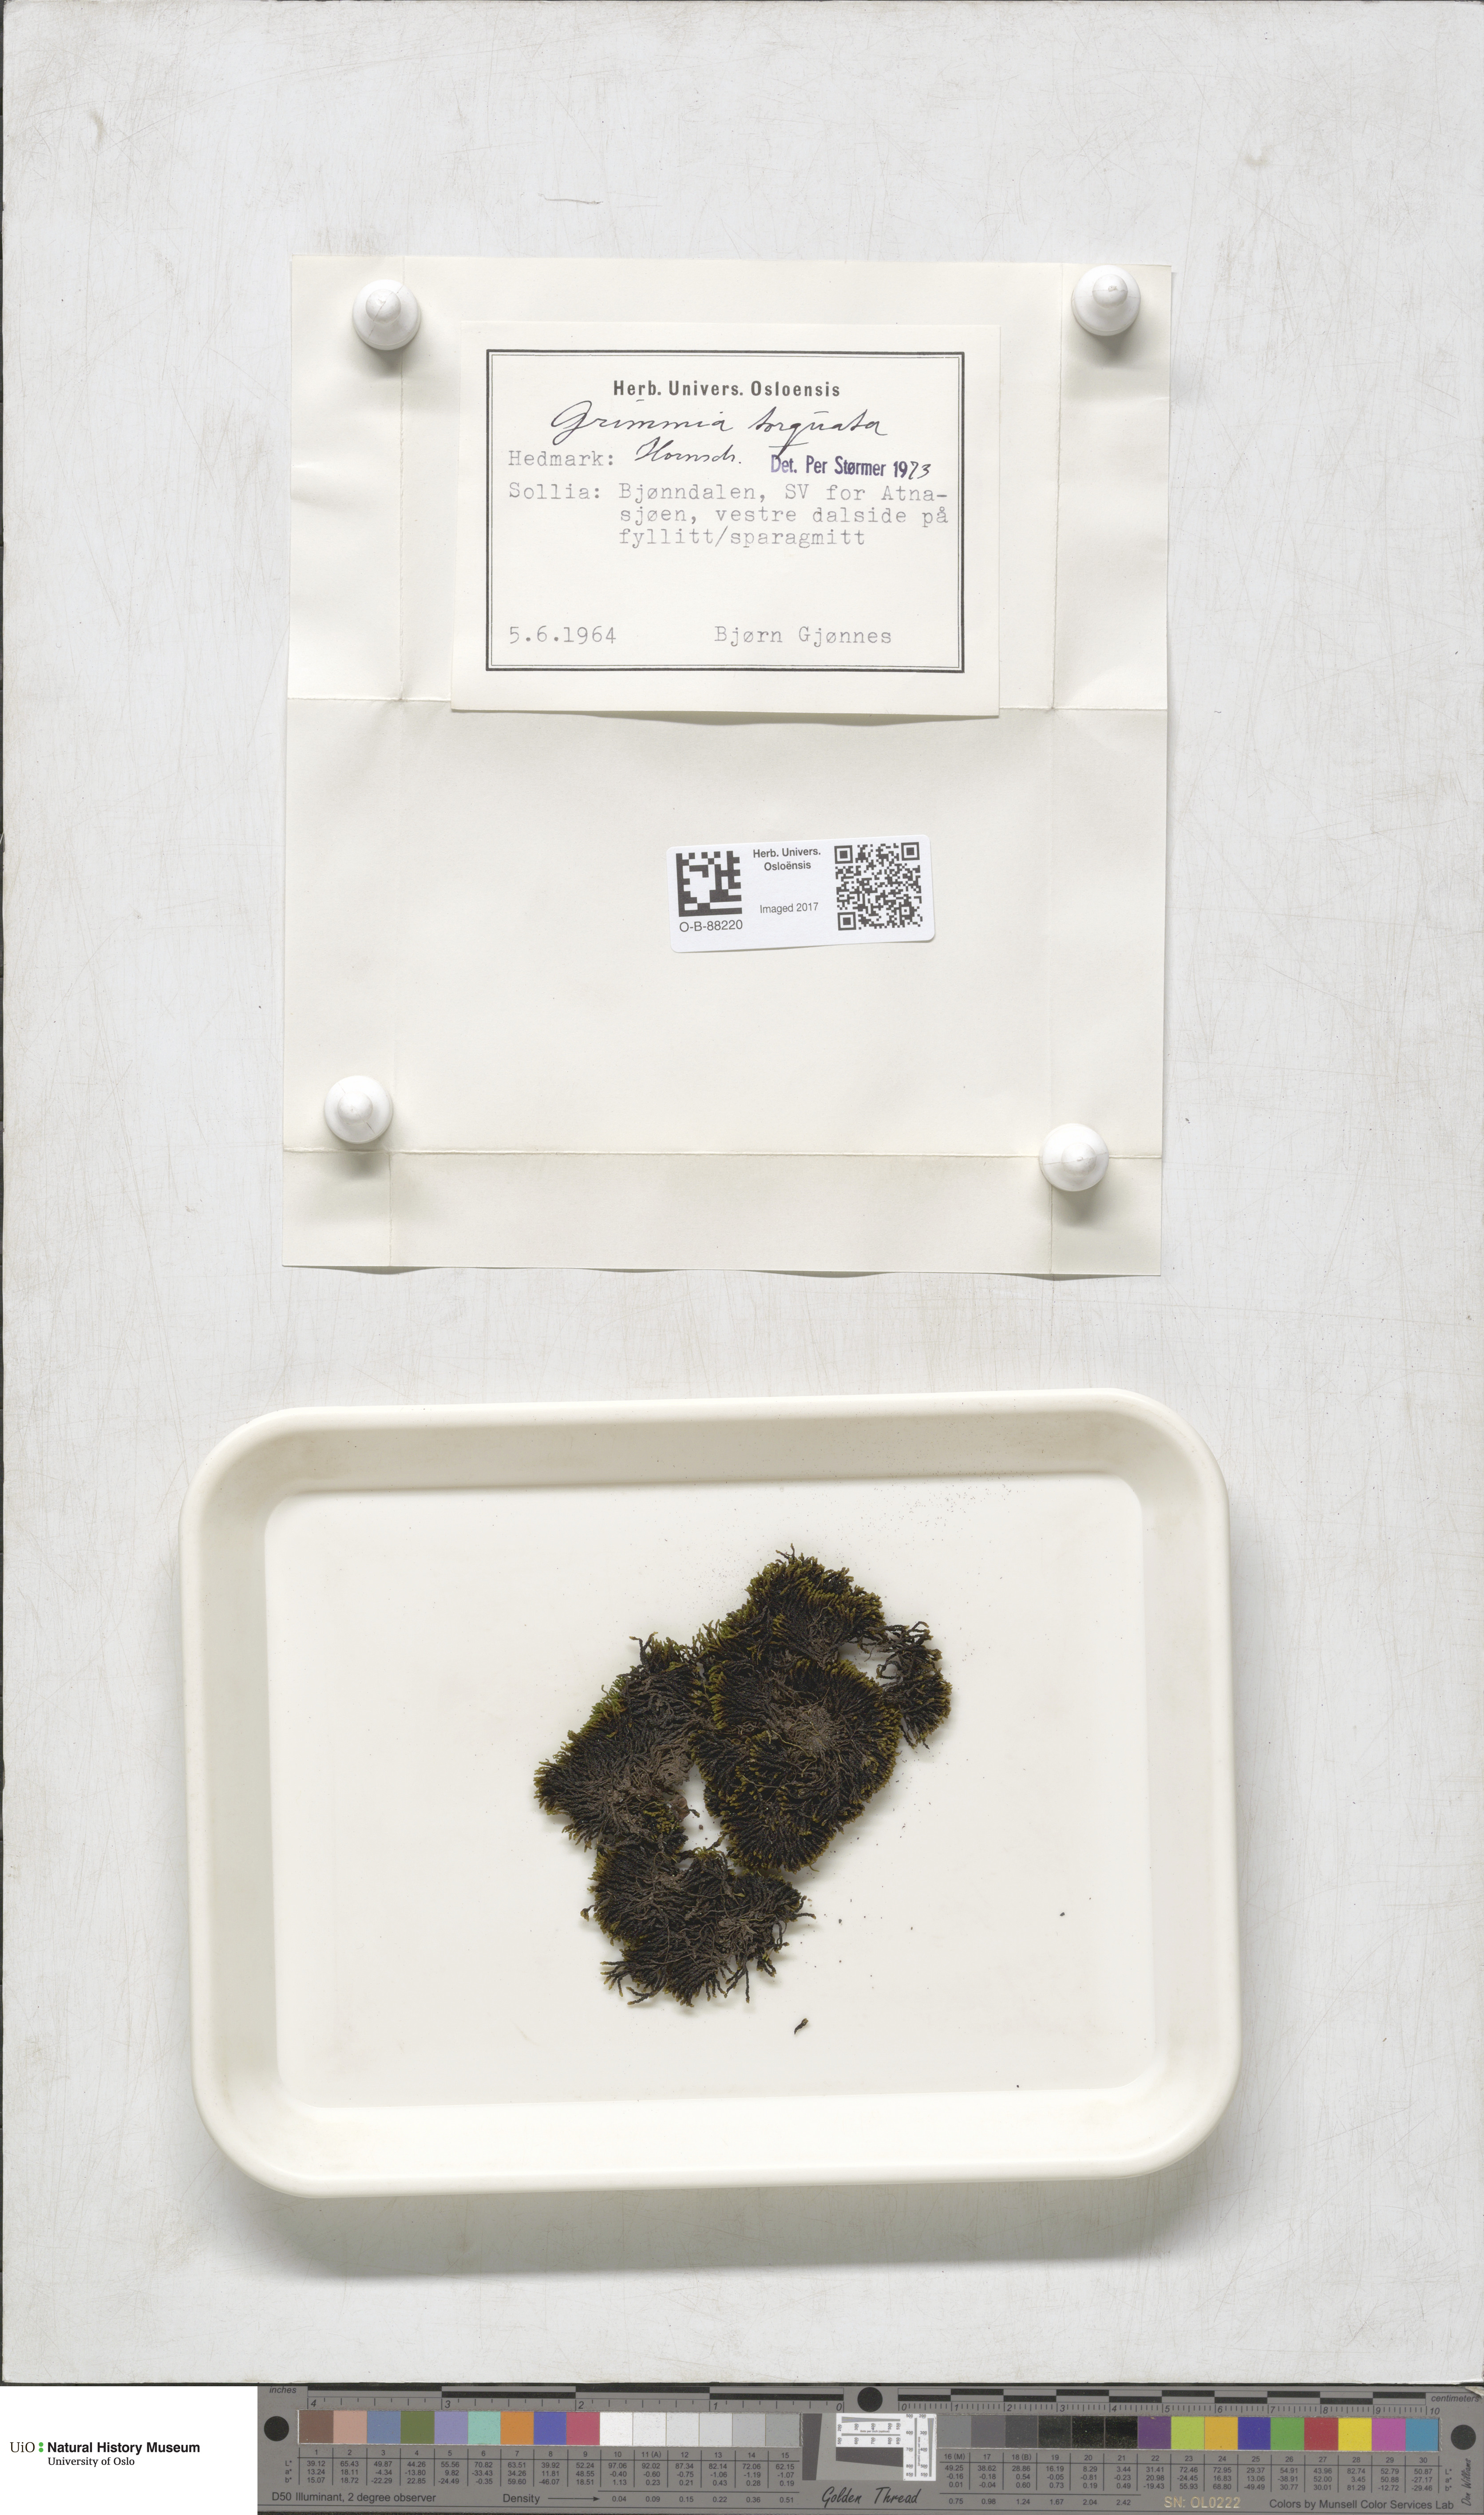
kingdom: Plantae
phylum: Bryophyta
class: Bryopsida
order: Grimmiales
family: Grimmiaceae
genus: Grimmia
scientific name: Grimmia torquata
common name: Twisted grimmia
